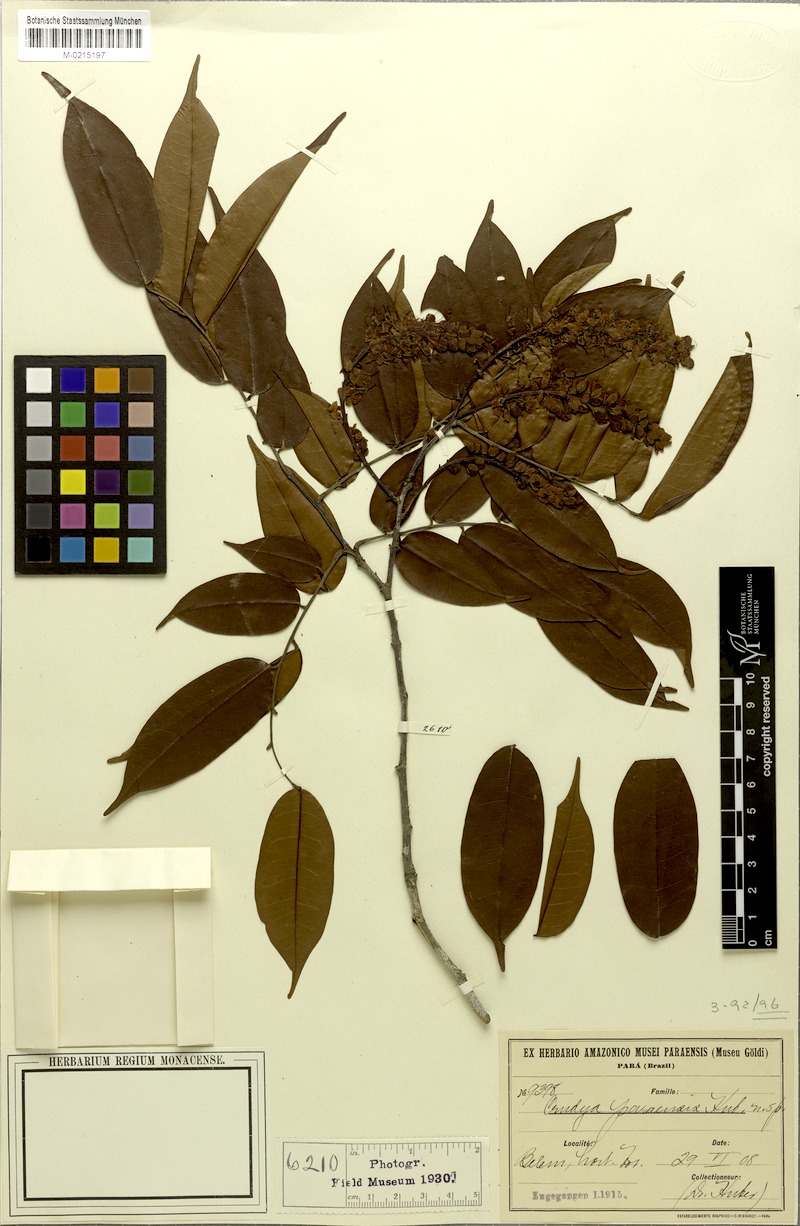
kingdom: Plantae
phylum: Tracheophyta
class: Magnoliopsida
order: Fabales
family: Fabaceae
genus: Crudia
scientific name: Crudia bracteata
